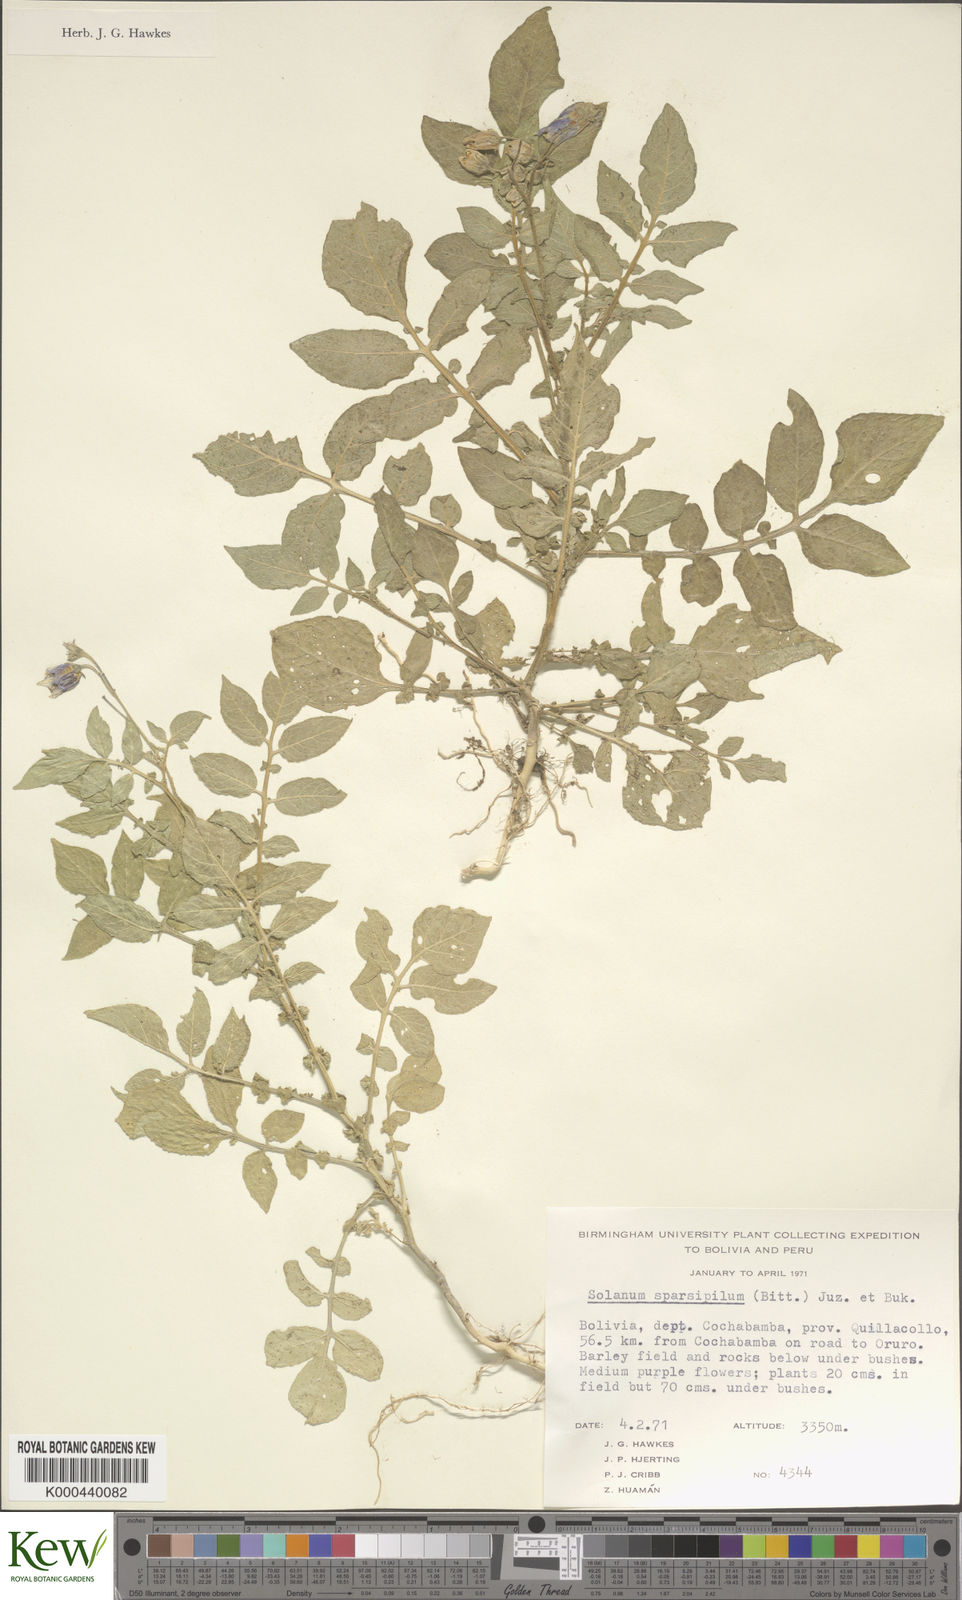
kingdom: Plantae
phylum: Tracheophyta
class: Magnoliopsida
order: Solanales
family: Solanaceae
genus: Solanum
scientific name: Solanum brevicaule
